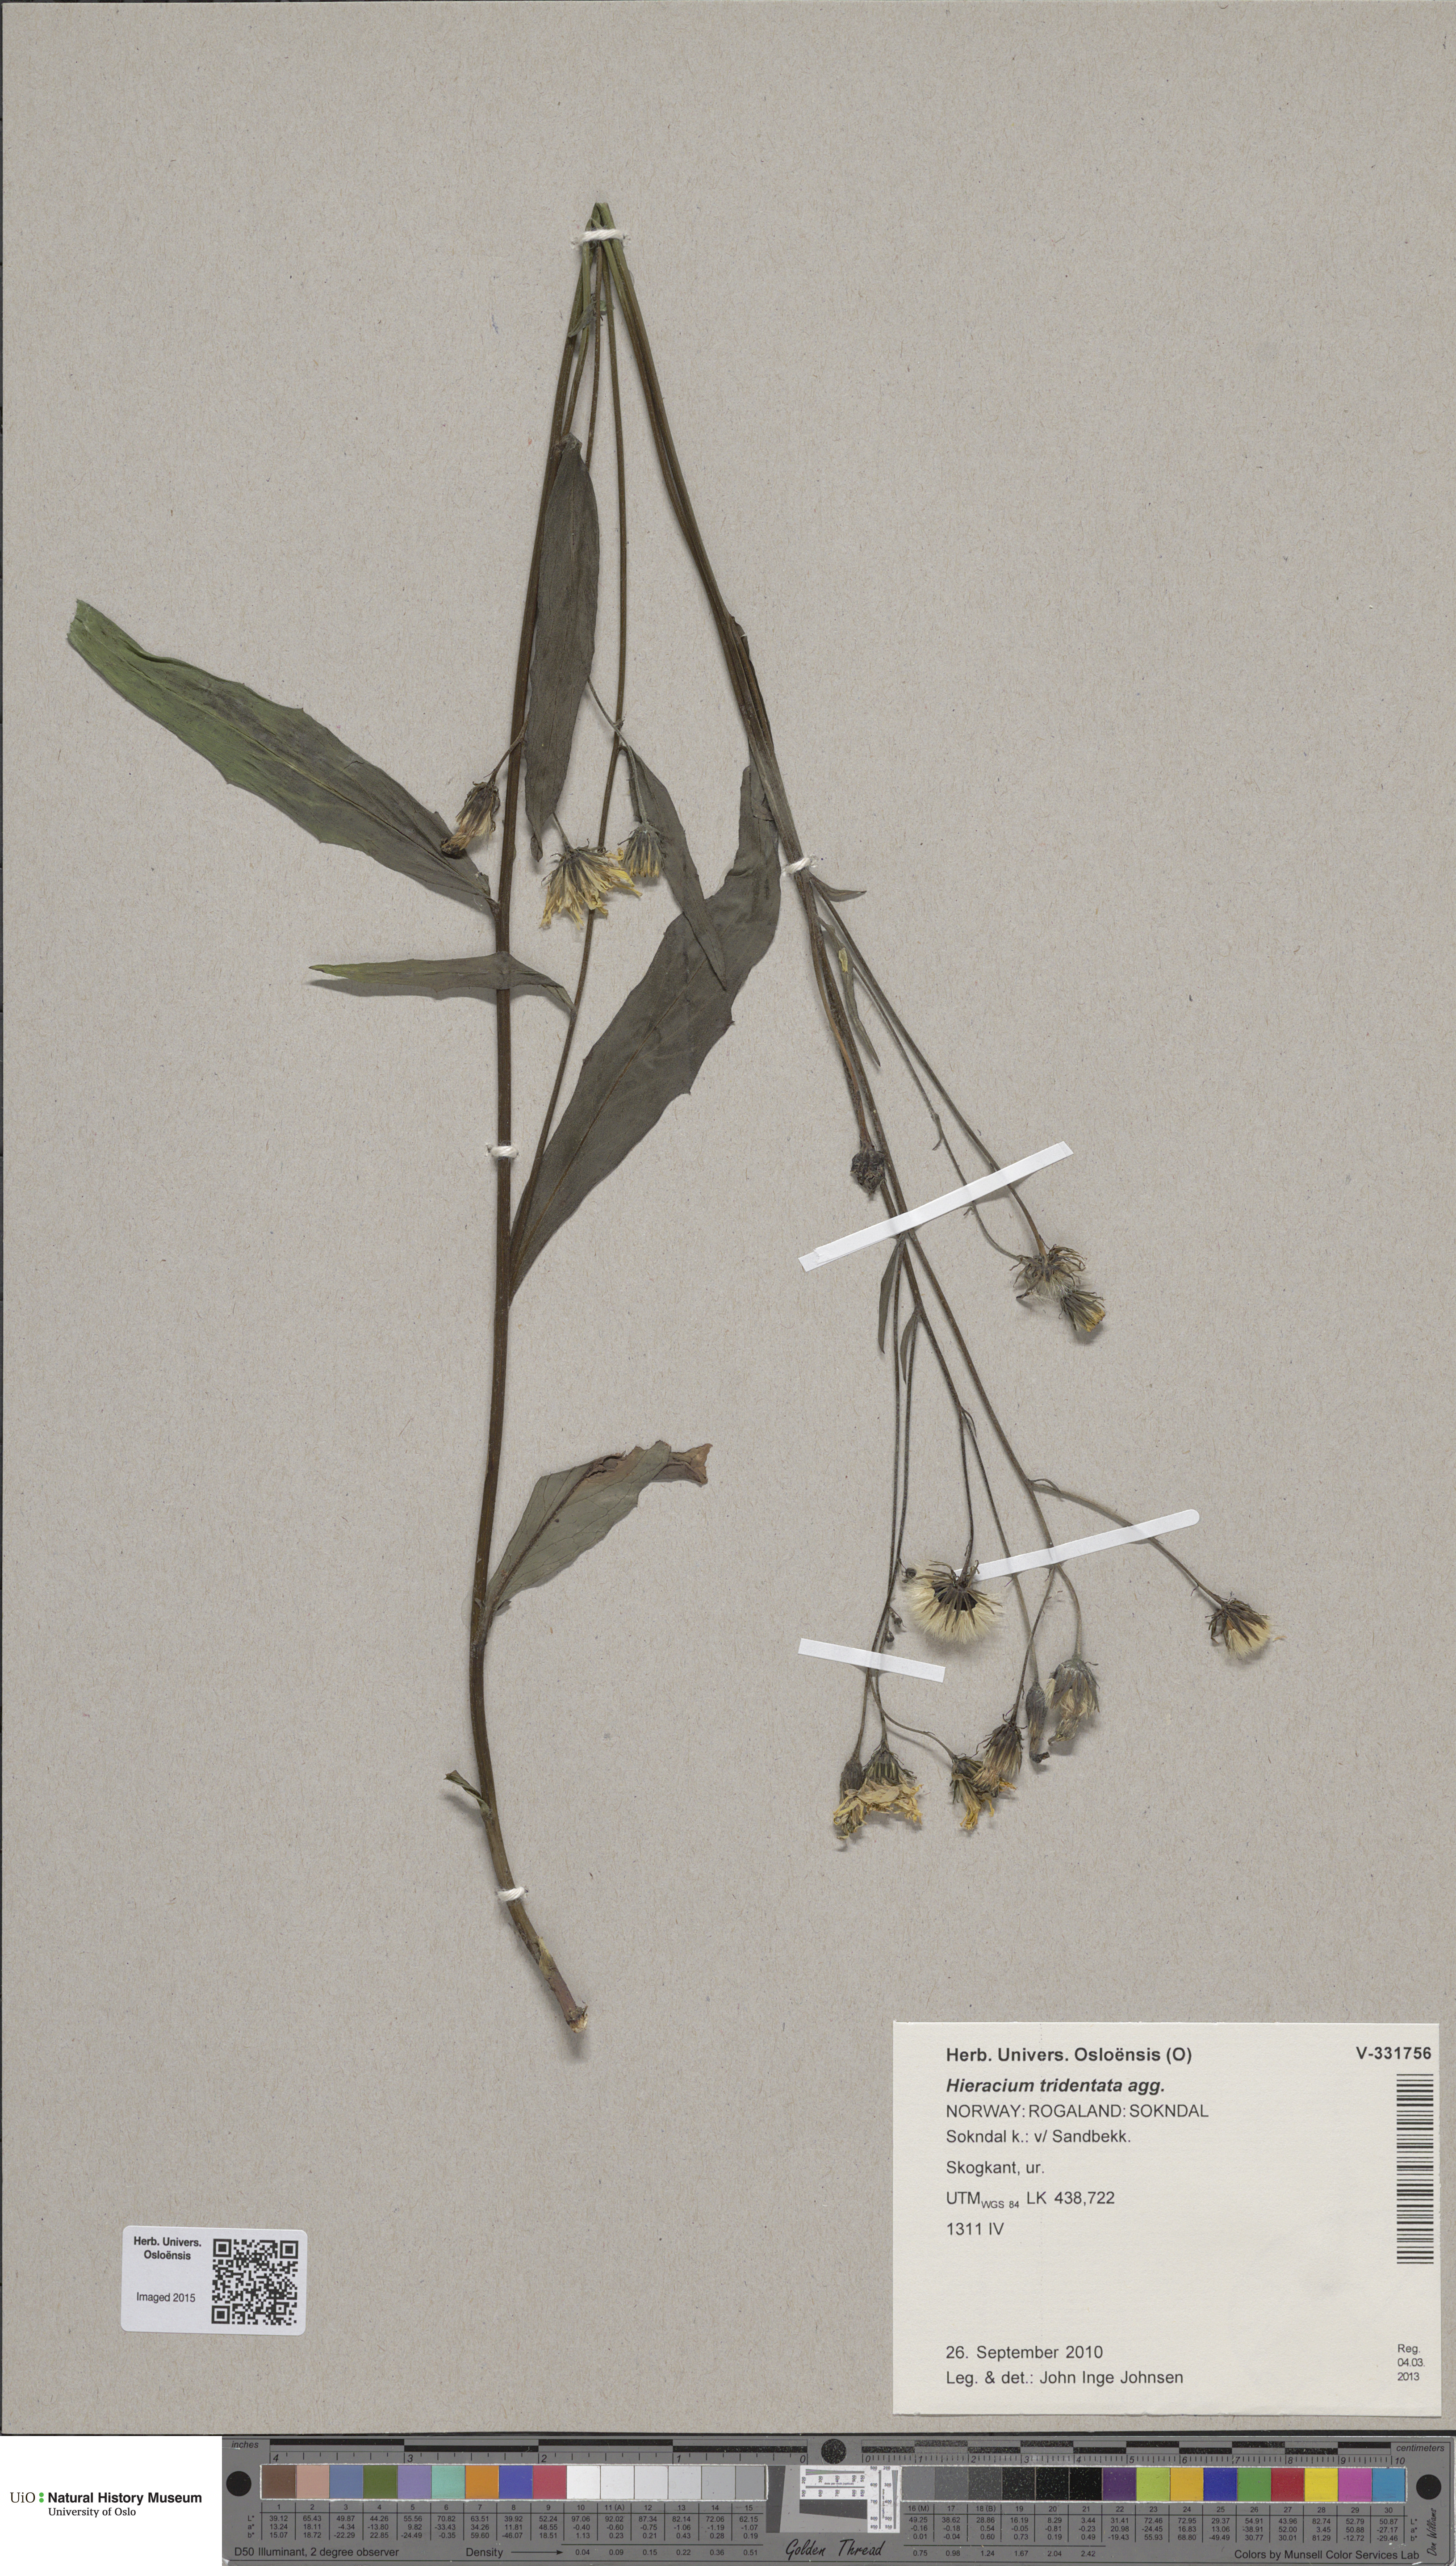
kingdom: Plantae
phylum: Tracheophyta
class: Magnoliopsida
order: Asterales
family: Asteraceae
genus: Hieracium
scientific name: Hieracium tridentatum
